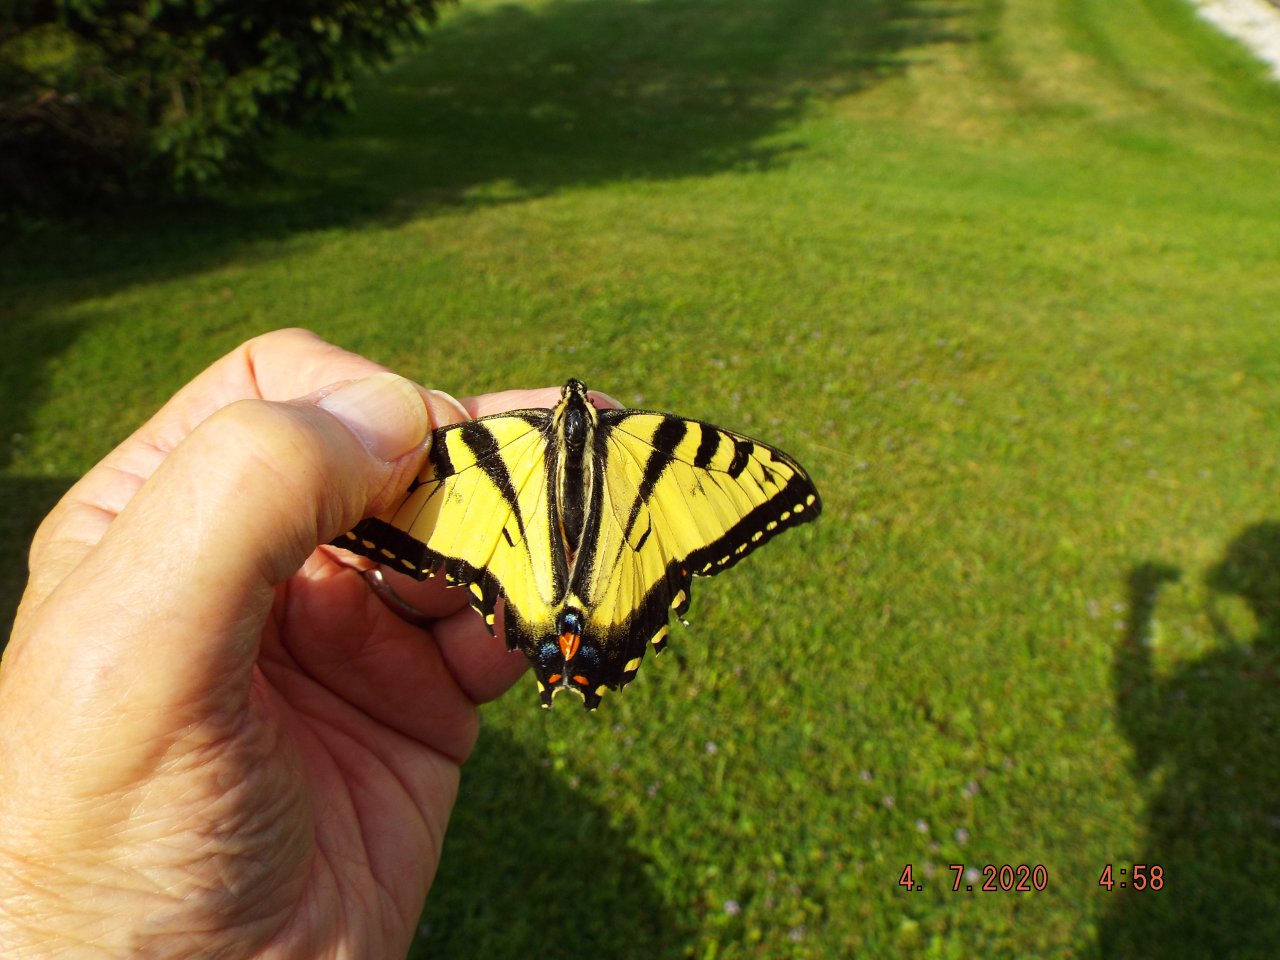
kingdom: Animalia
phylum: Arthropoda
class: Insecta
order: Lepidoptera
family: Papilionidae
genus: Pterourus
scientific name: Pterourus glaucus
